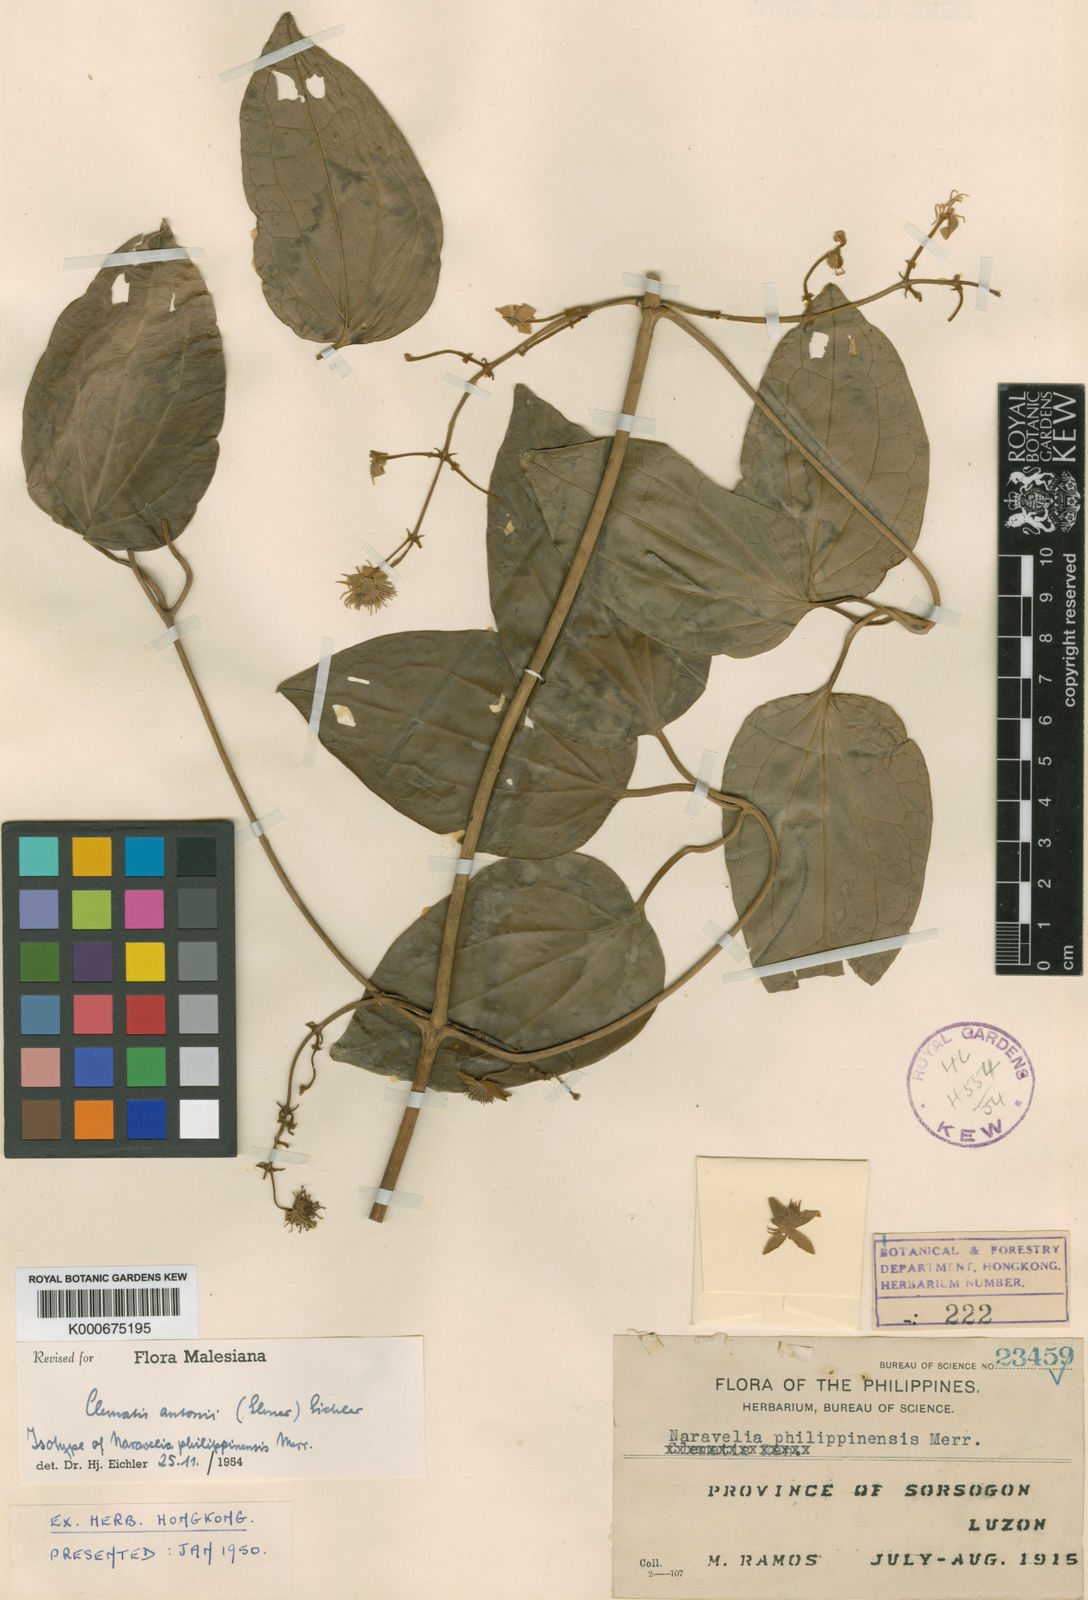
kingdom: Plantae
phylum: Tracheophyta
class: Magnoliopsida
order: Ranunculales
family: Ranunculaceae
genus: Clematis
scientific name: Clematis antonii
